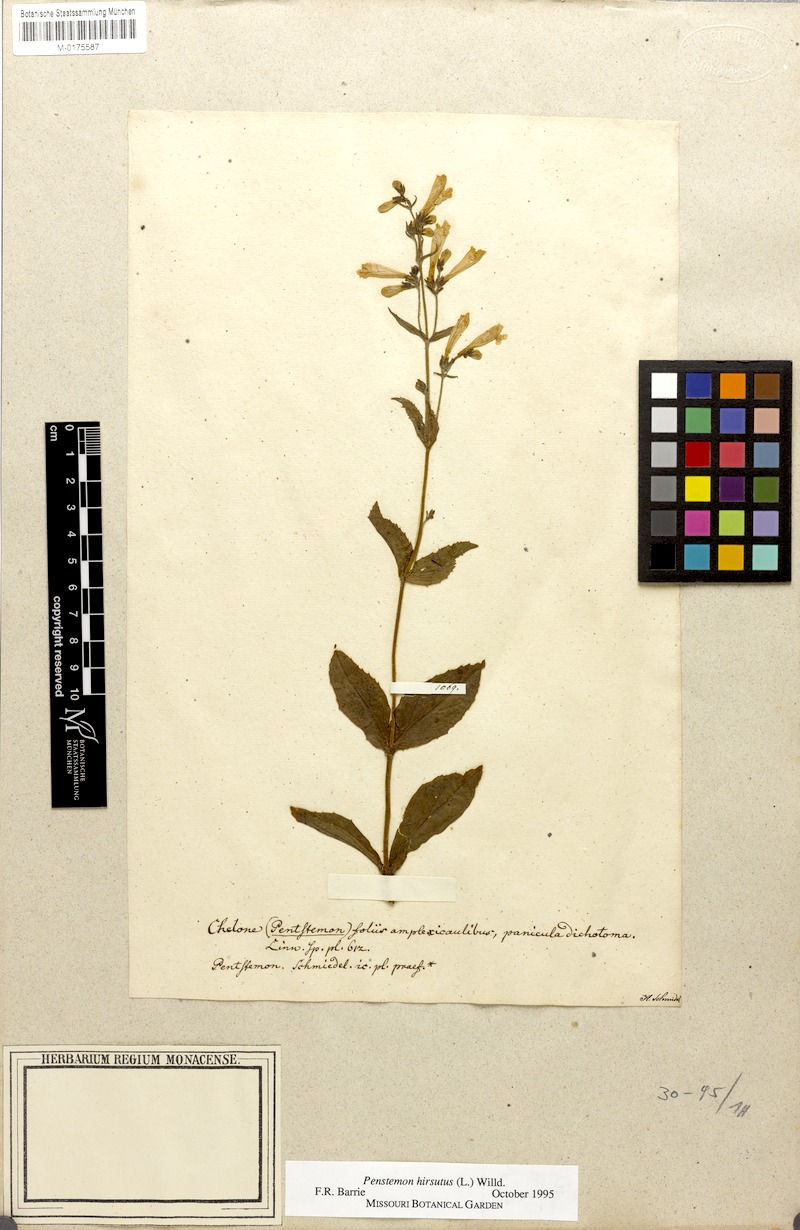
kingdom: Plantae
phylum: Tracheophyta
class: Magnoliopsida
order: Lamiales
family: Plantaginaceae
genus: Penstemon
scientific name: Penstemon hirsutus
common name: Hairy beardtongue
